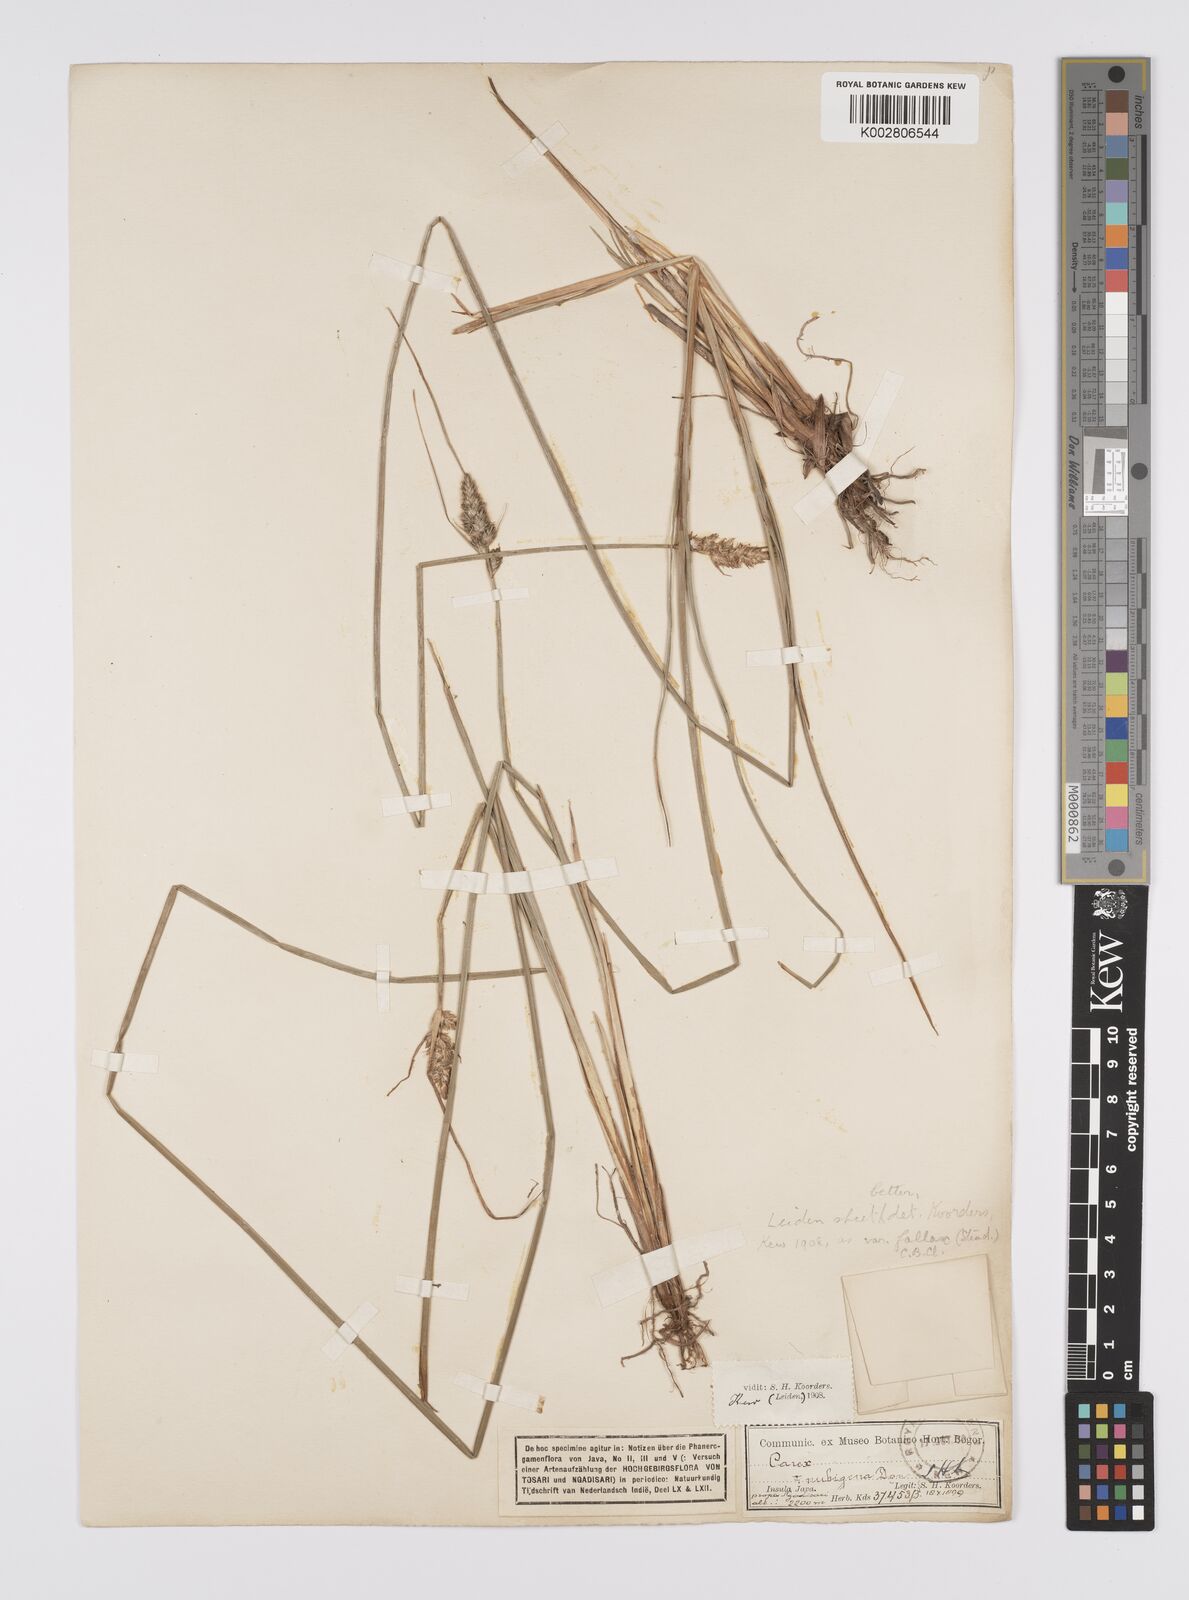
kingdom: Plantae
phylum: Tracheophyta
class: Liliopsida
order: Poales
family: Cyperaceae
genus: Carex
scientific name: Carex
